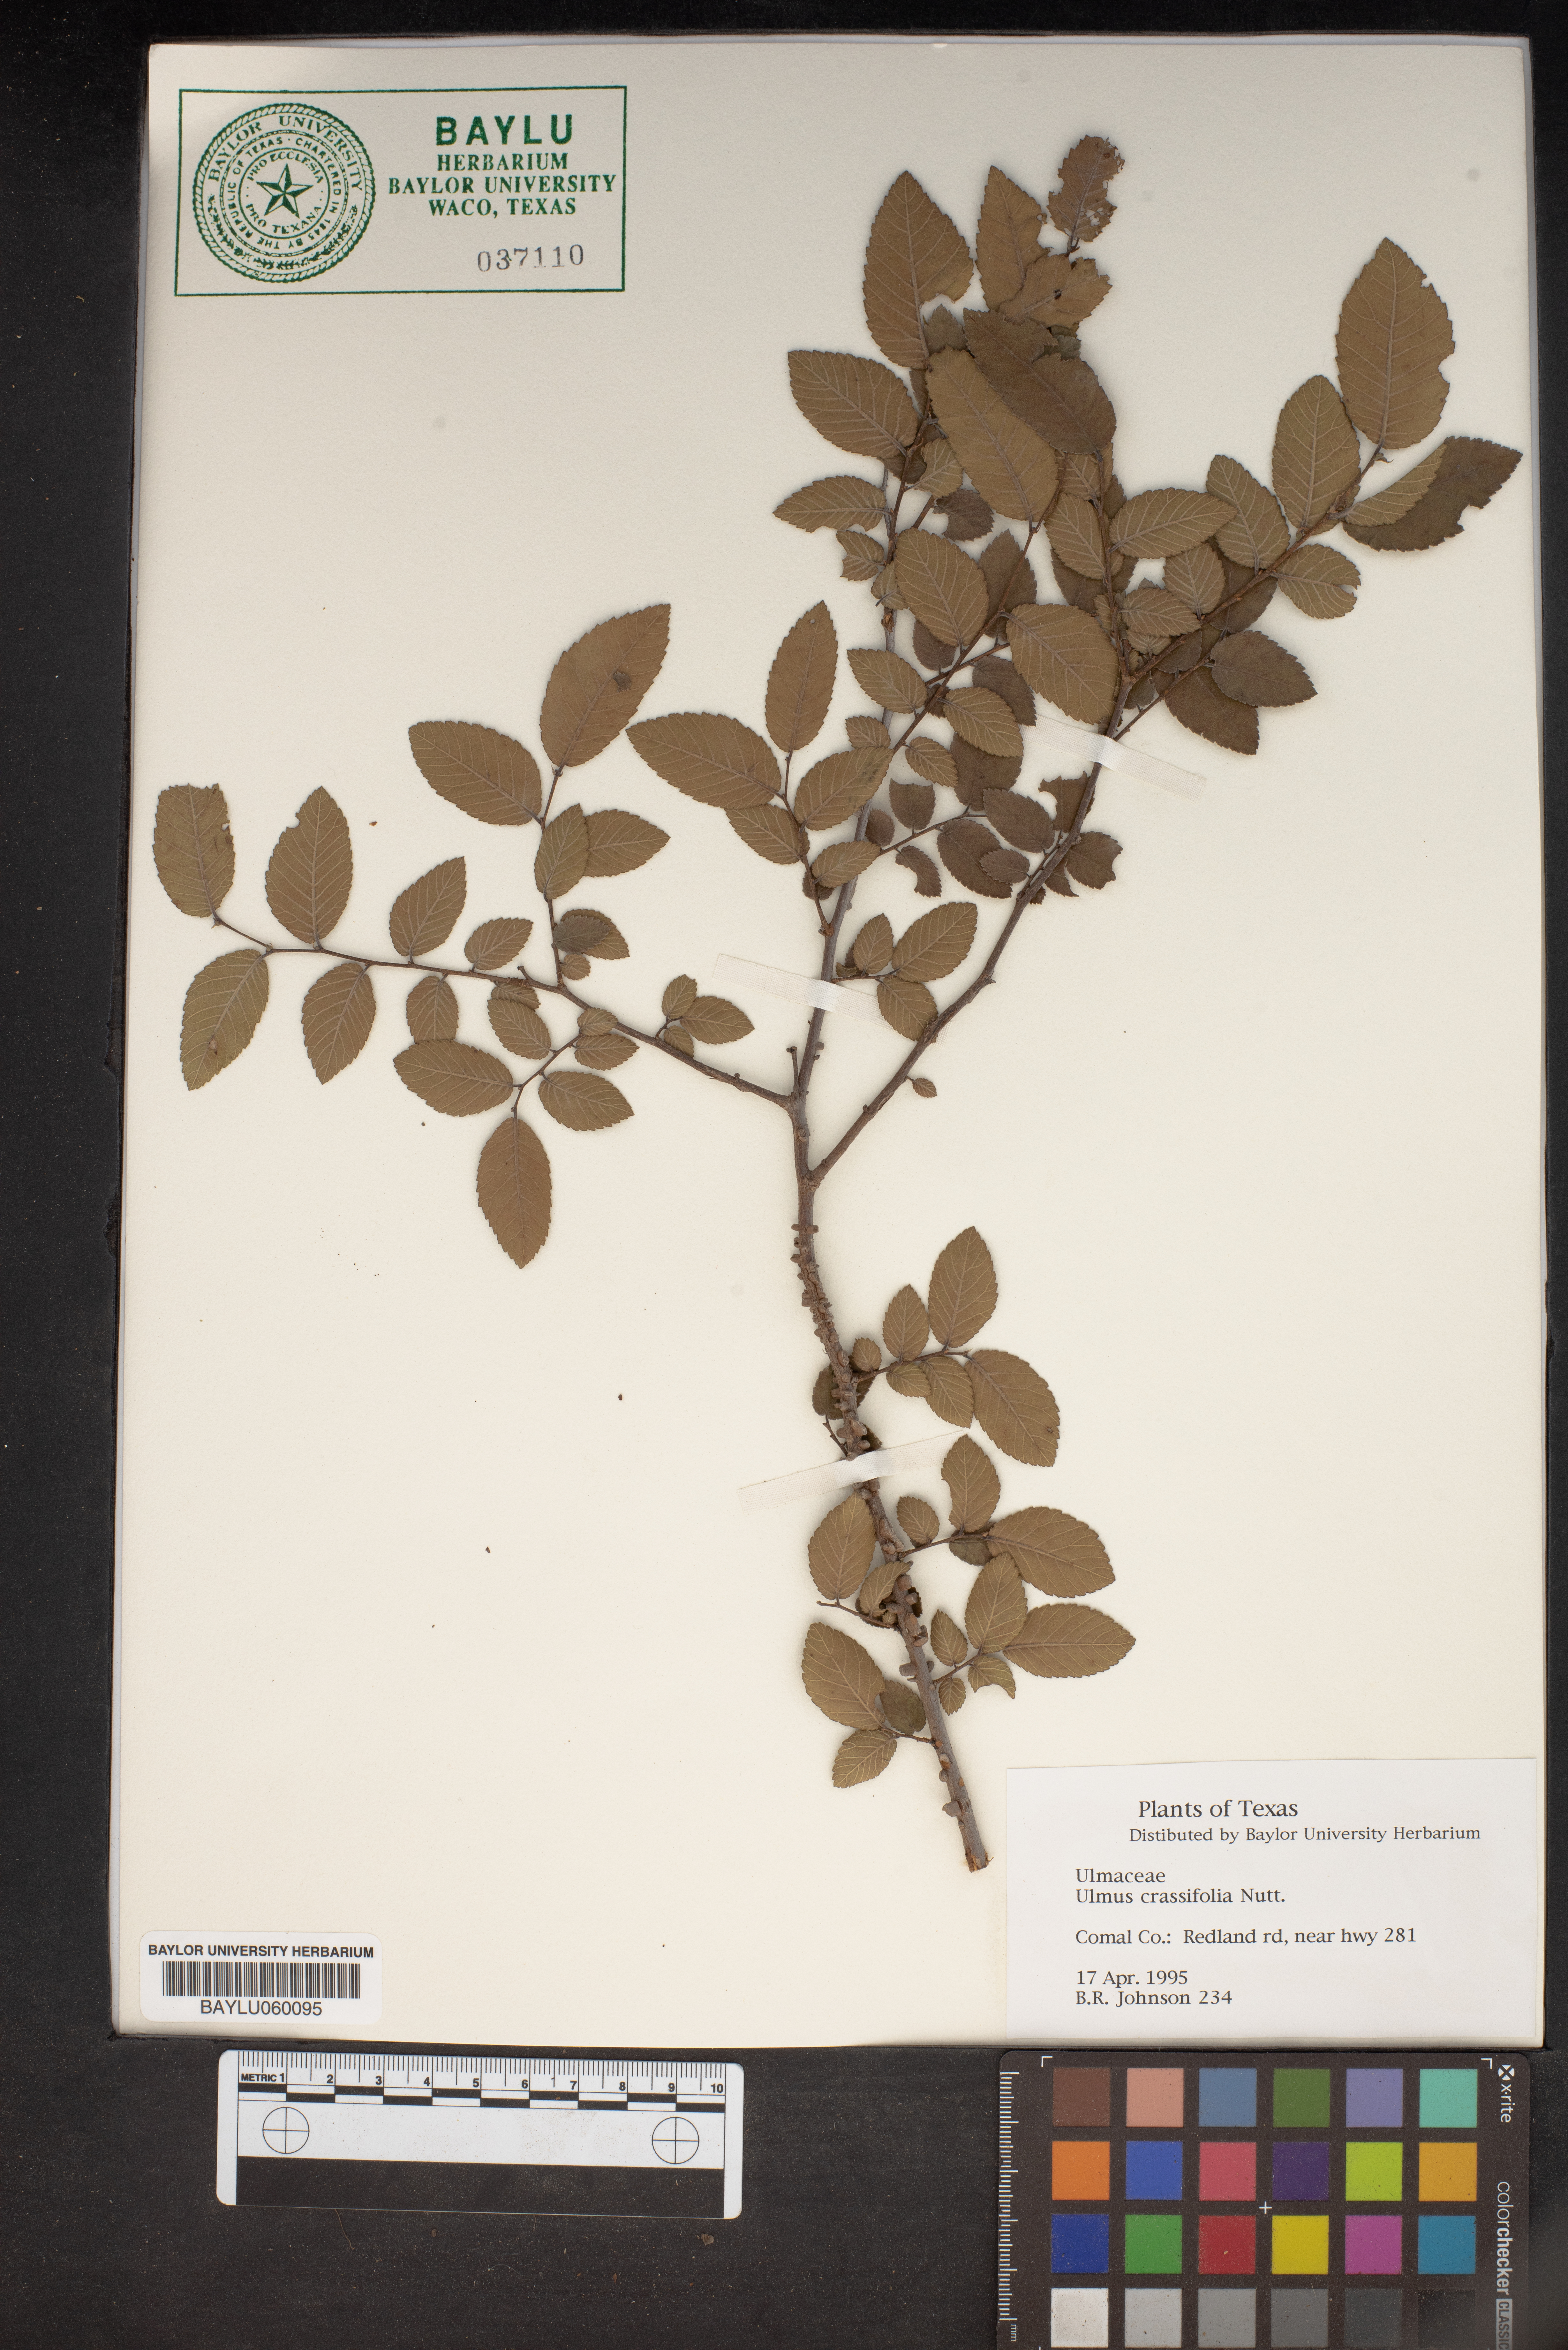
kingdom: Plantae
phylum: Tracheophyta
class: Magnoliopsida
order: Rosales
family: Ulmaceae
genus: Ulmus
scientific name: Ulmus crassifolia
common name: Basket elm
